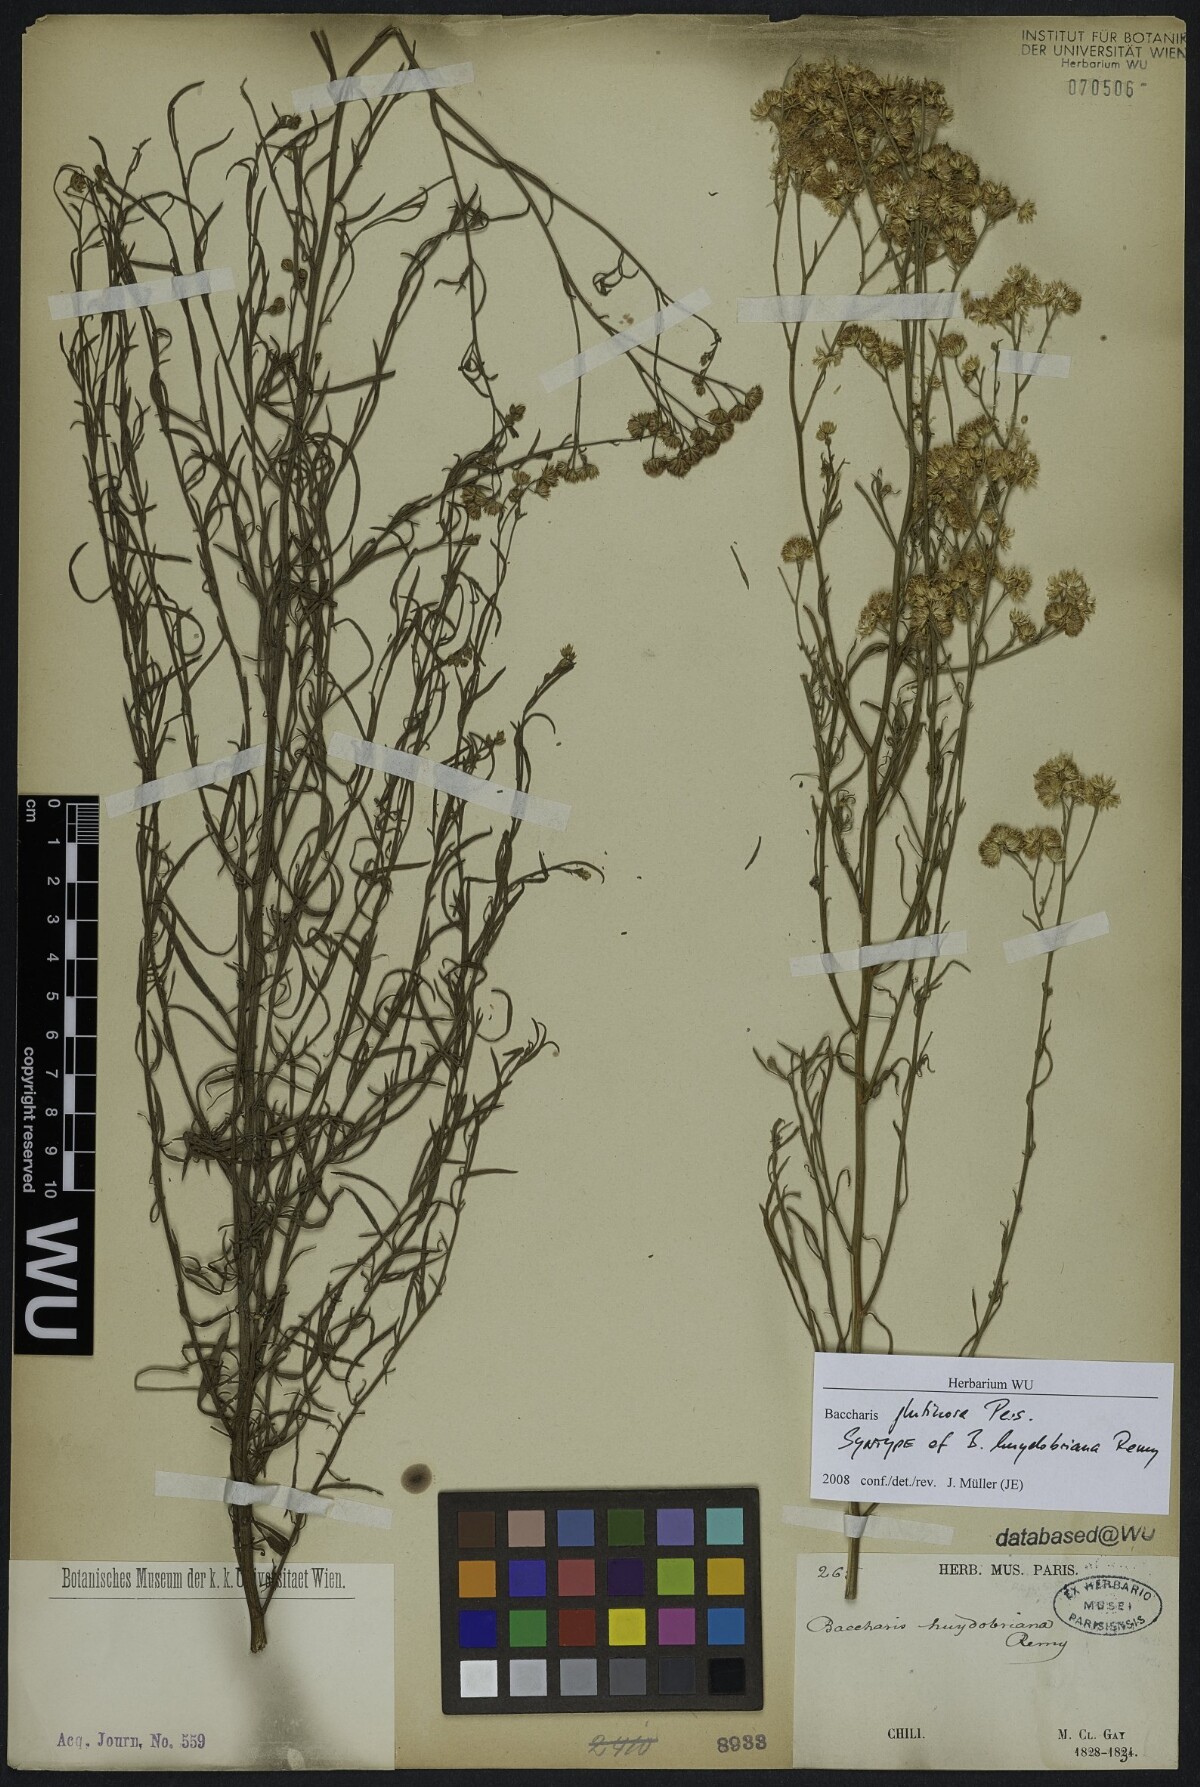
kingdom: Plantae
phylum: Tracheophyta
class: Magnoliopsida
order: Asterales
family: Asteraceae
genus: Baccharis
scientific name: Baccharis glutinosa
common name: Saltmarsh baccharis
